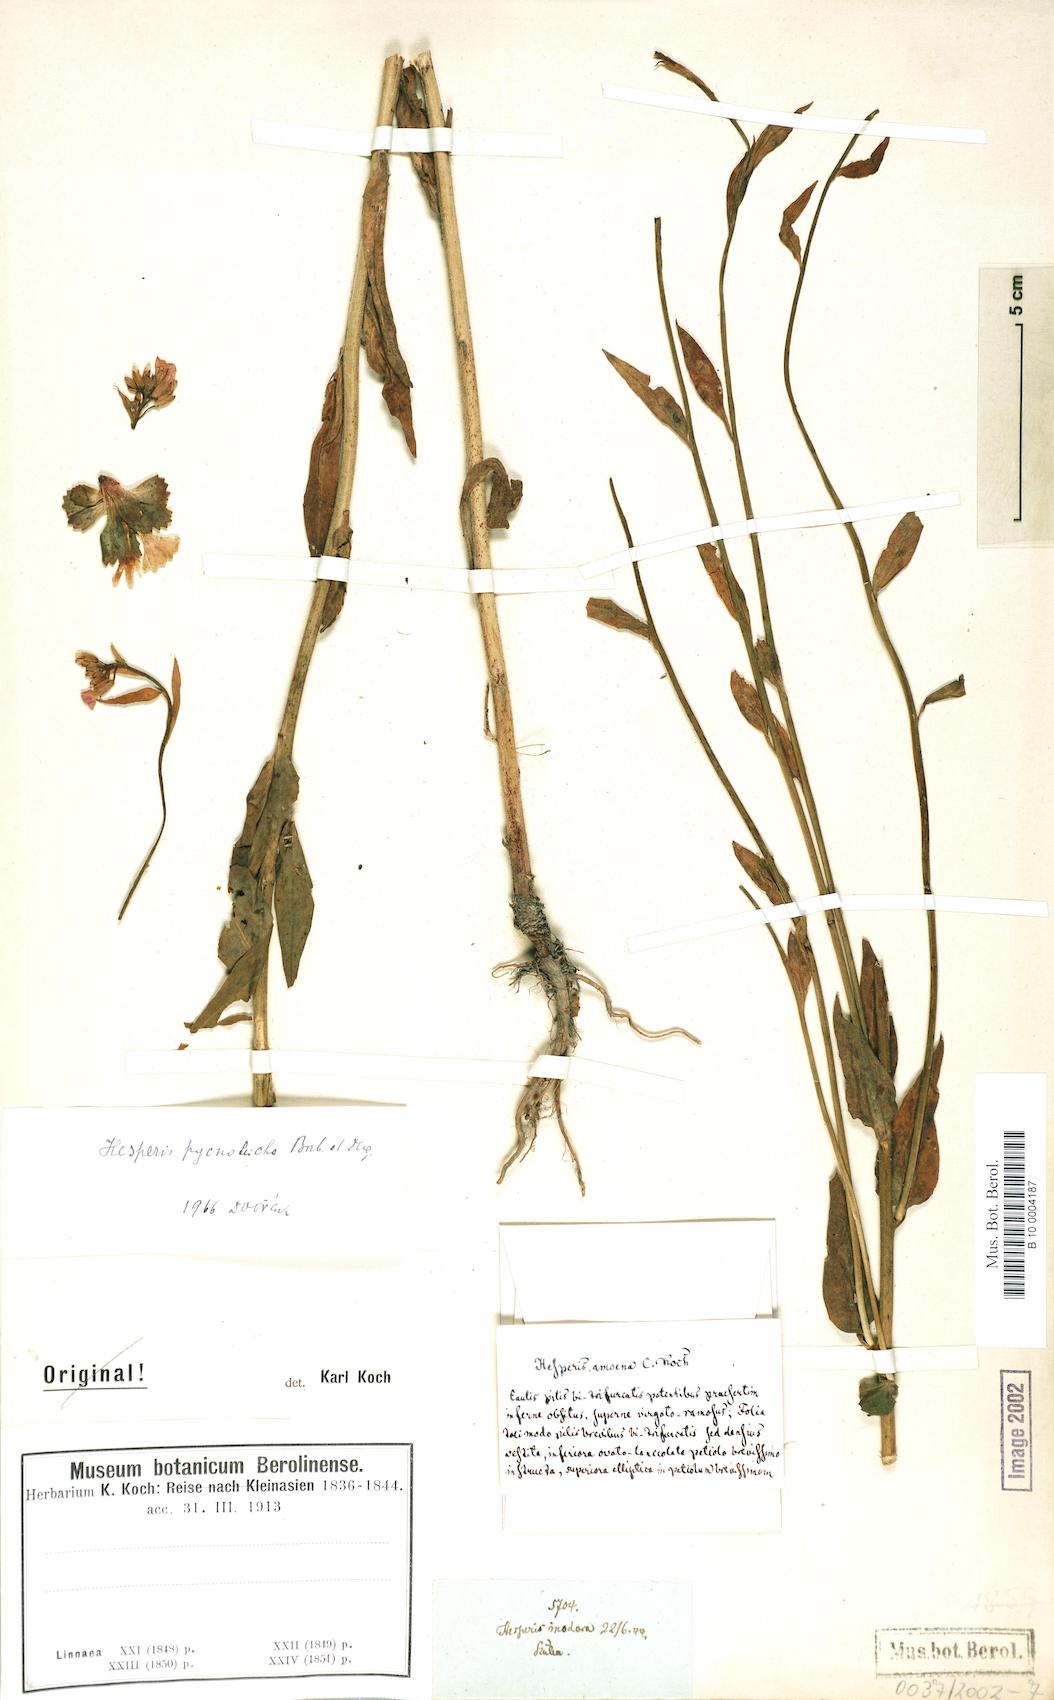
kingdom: Plantae
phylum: Tracheophyta
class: Magnoliopsida
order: Brassicales
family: Brassicaceae
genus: Hesperis
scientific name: Hesperis pycnotricha
